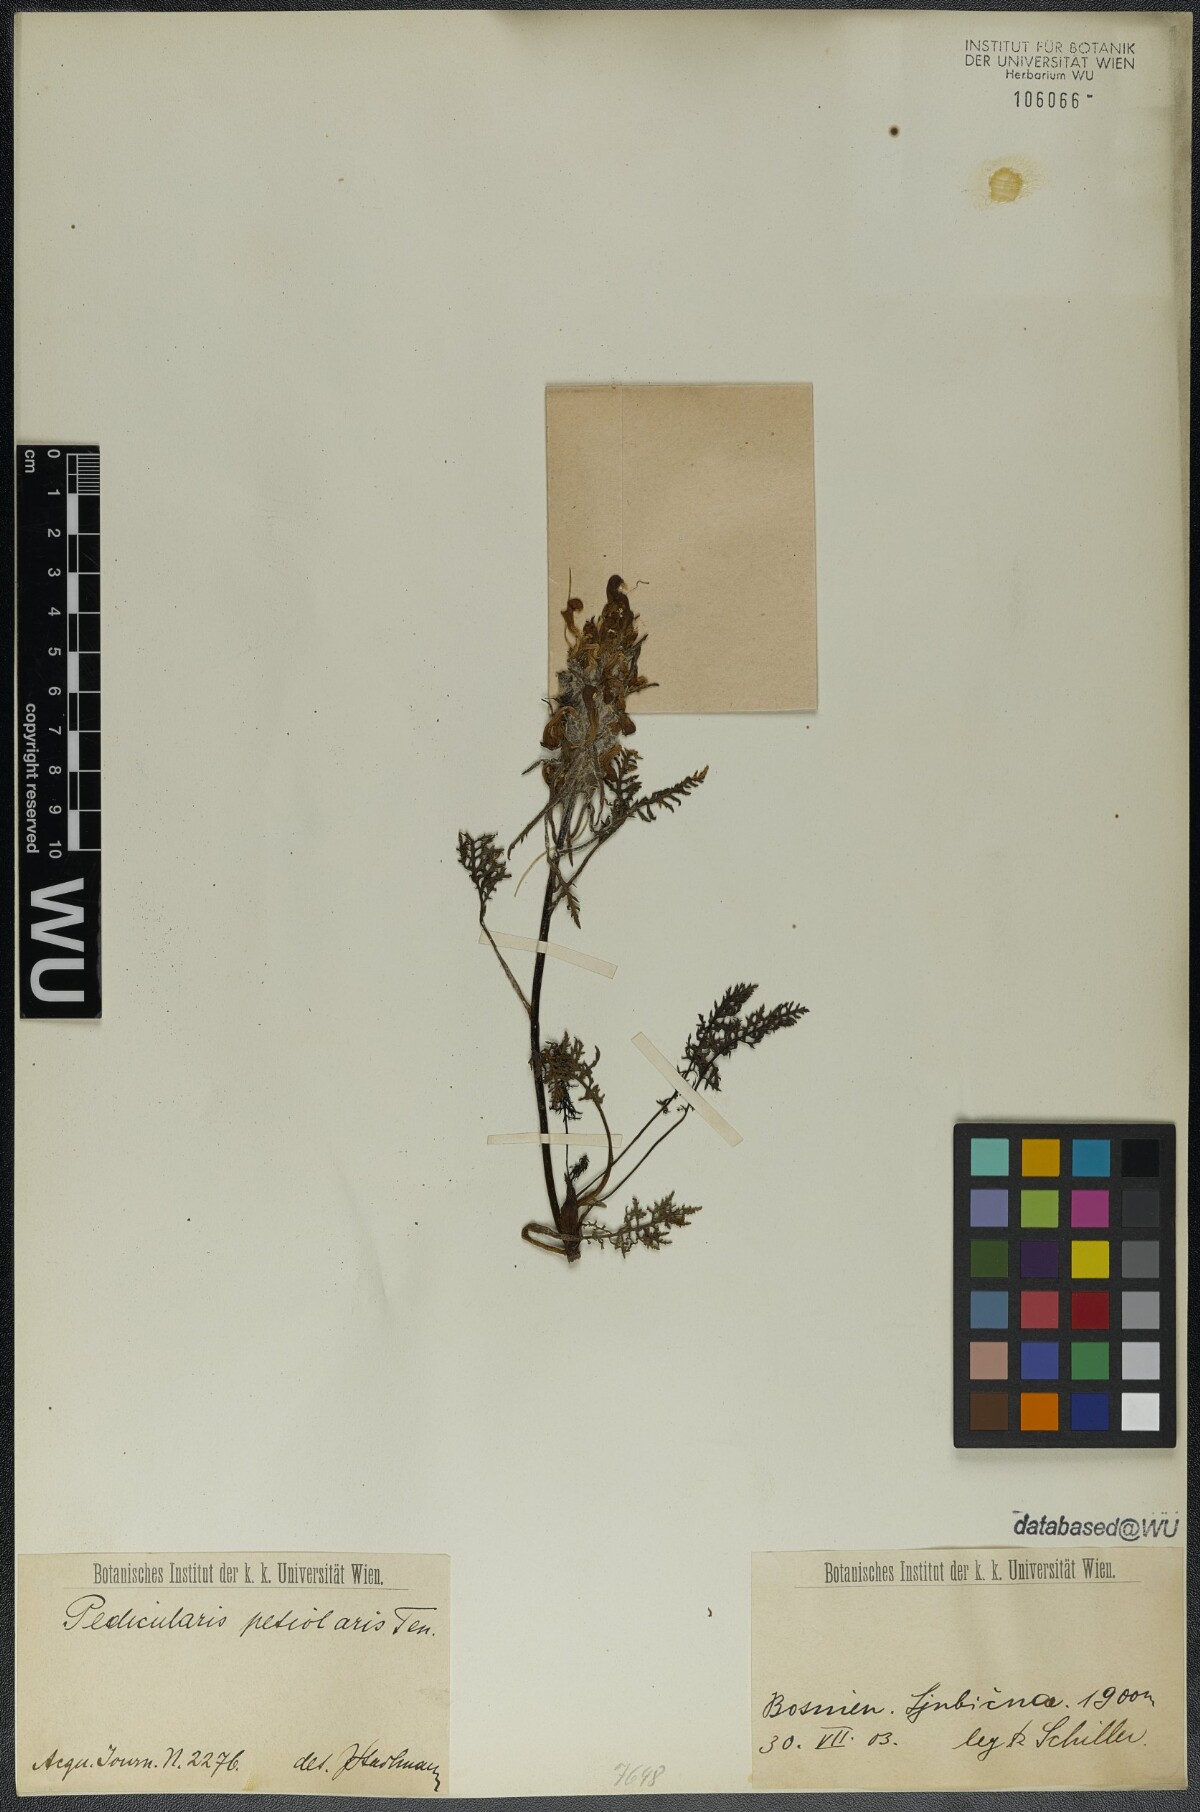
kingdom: Plantae
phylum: Tracheophyta
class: Magnoliopsida
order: Lamiales
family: Orobanchaceae
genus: Pedicularis
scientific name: Pedicularis petiolaris
